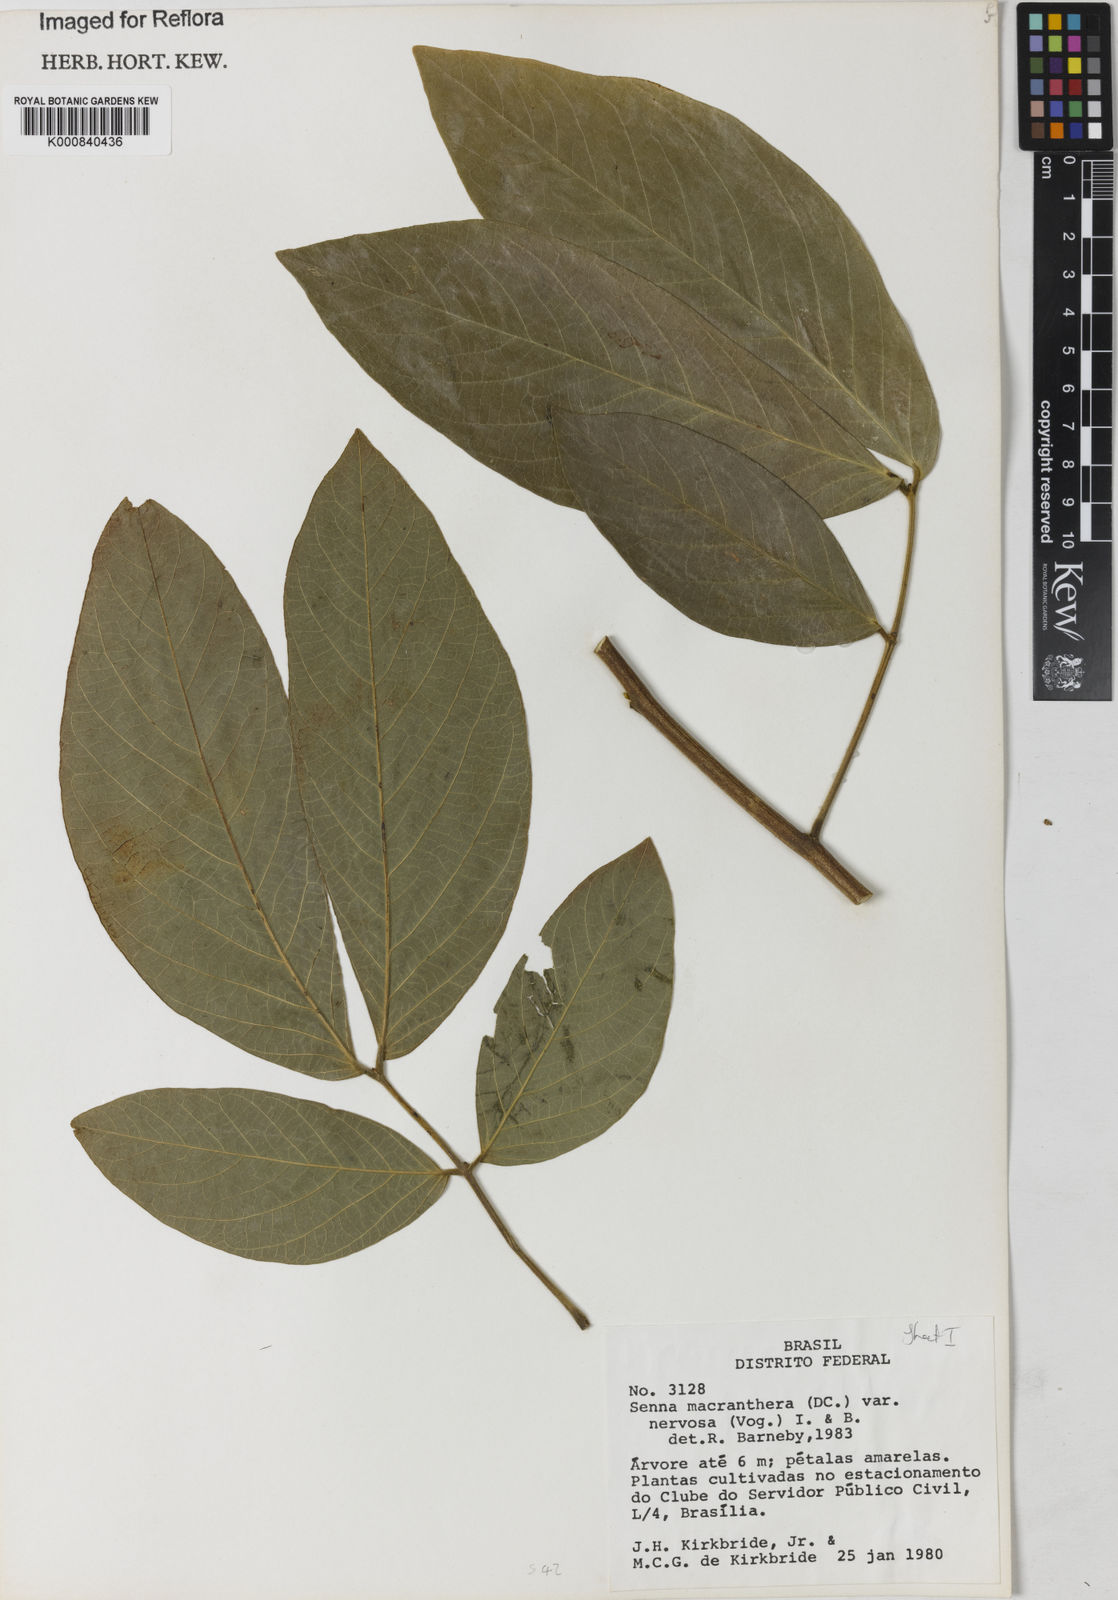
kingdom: Plantae
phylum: Tracheophyta
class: Magnoliopsida
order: Fabales
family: Fabaceae
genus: Senna
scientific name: Senna macranthera
